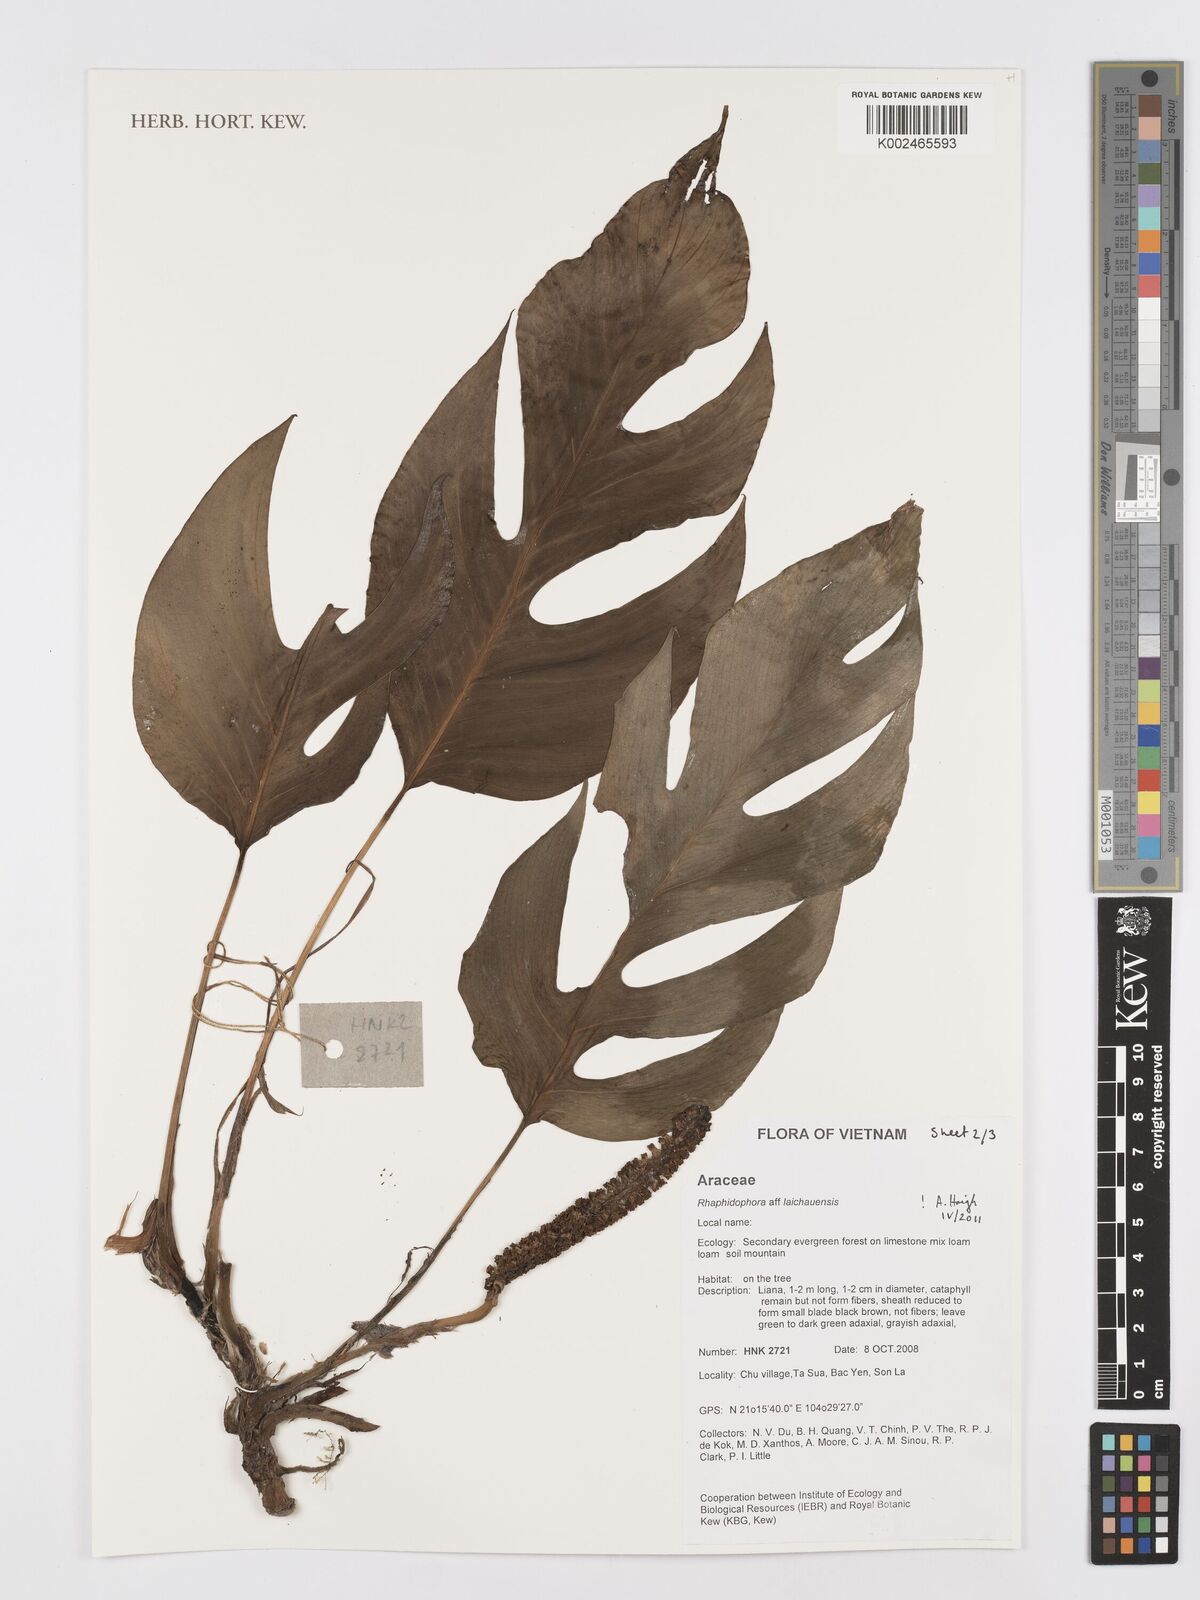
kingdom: Plantae
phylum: Tracheophyta
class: Liliopsida
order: Alismatales
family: Araceae
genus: Rhaphidophora
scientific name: Rhaphidophora
